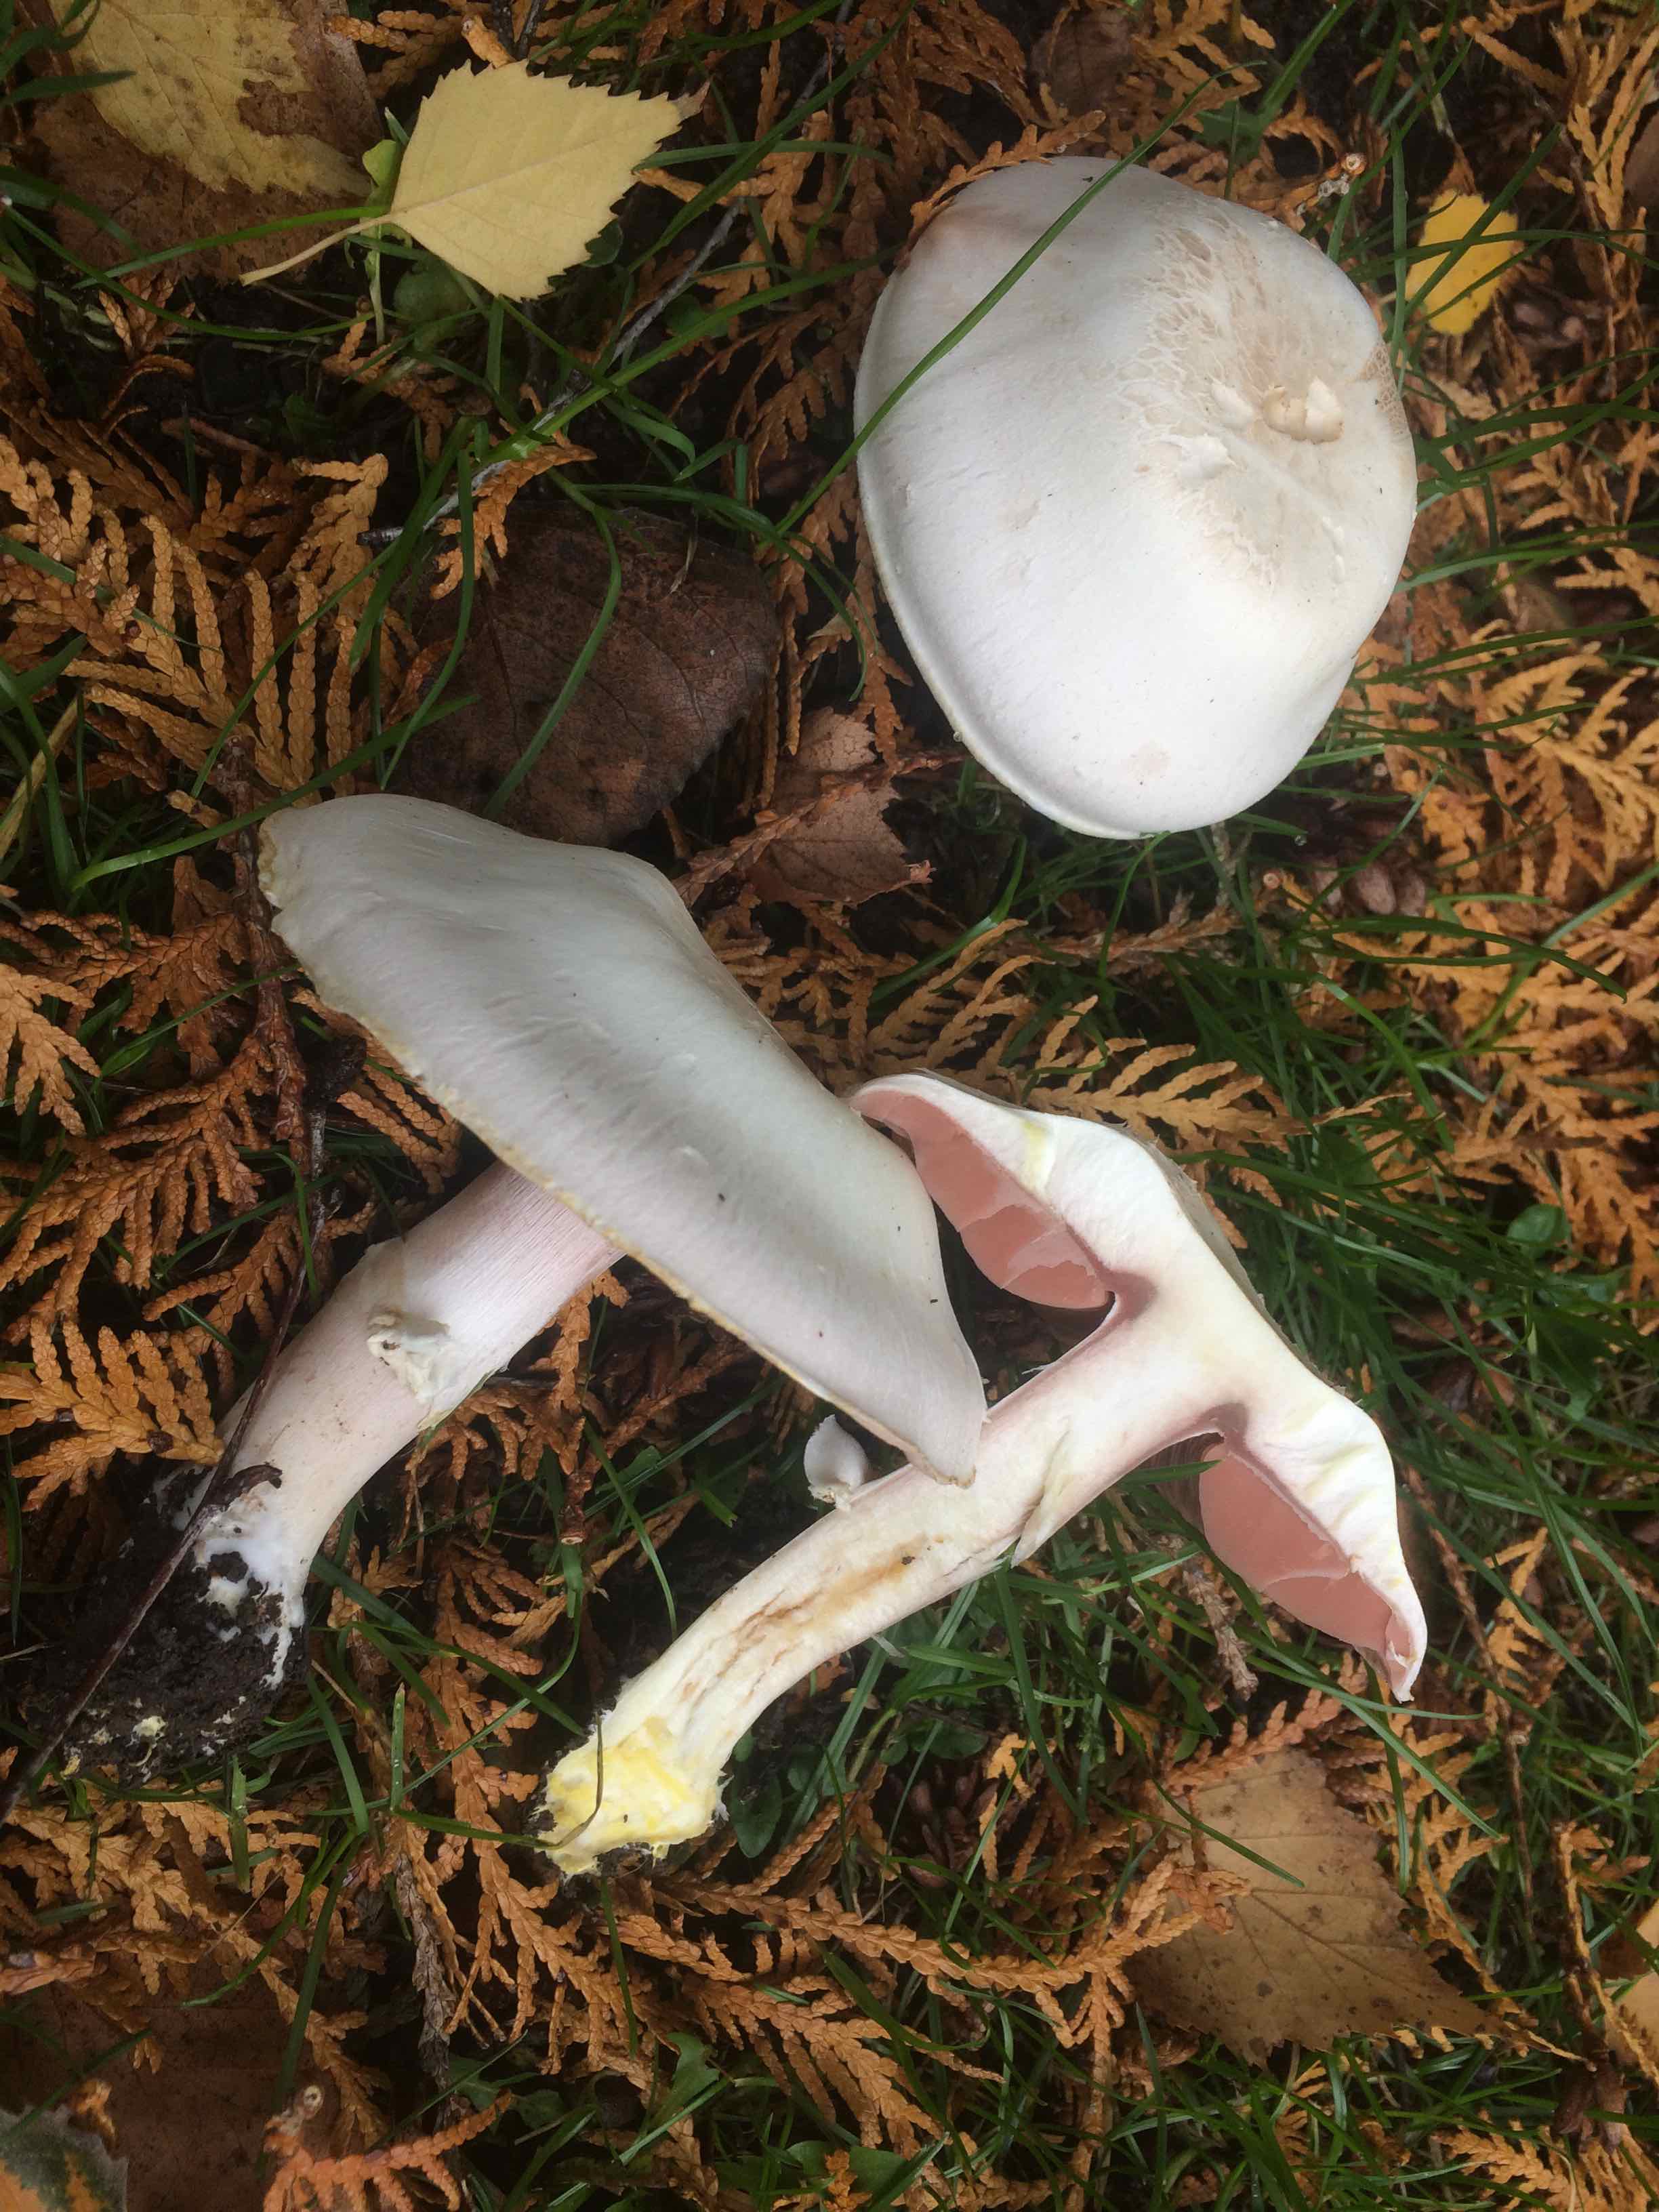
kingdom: Fungi
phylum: Basidiomycota
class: Agaricomycetes
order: Agaricales
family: Agaricaceae
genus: Agaricus
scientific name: Agaricus xanthodermus
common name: karbol-champignon
